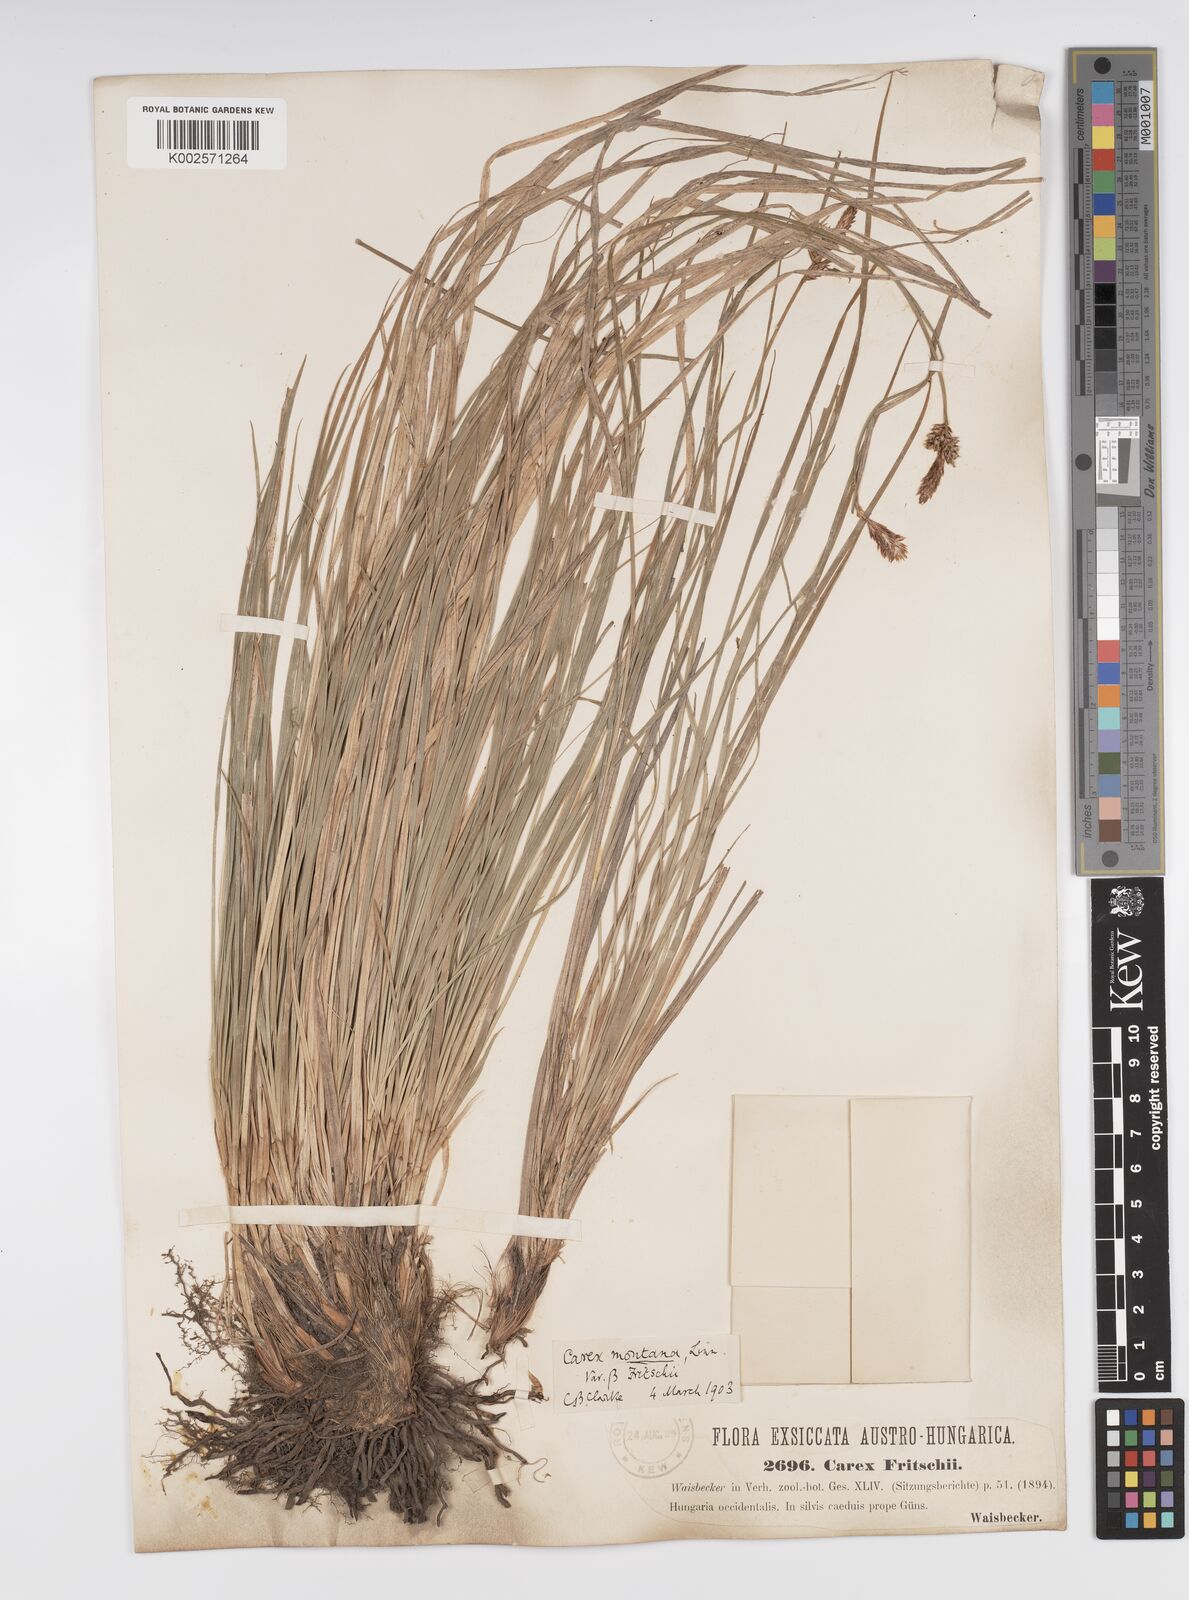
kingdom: Plantae
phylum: Tracheophyta
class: Liliopsida
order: Poales
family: Cyperaceae
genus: Carex
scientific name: Carex fritschii
